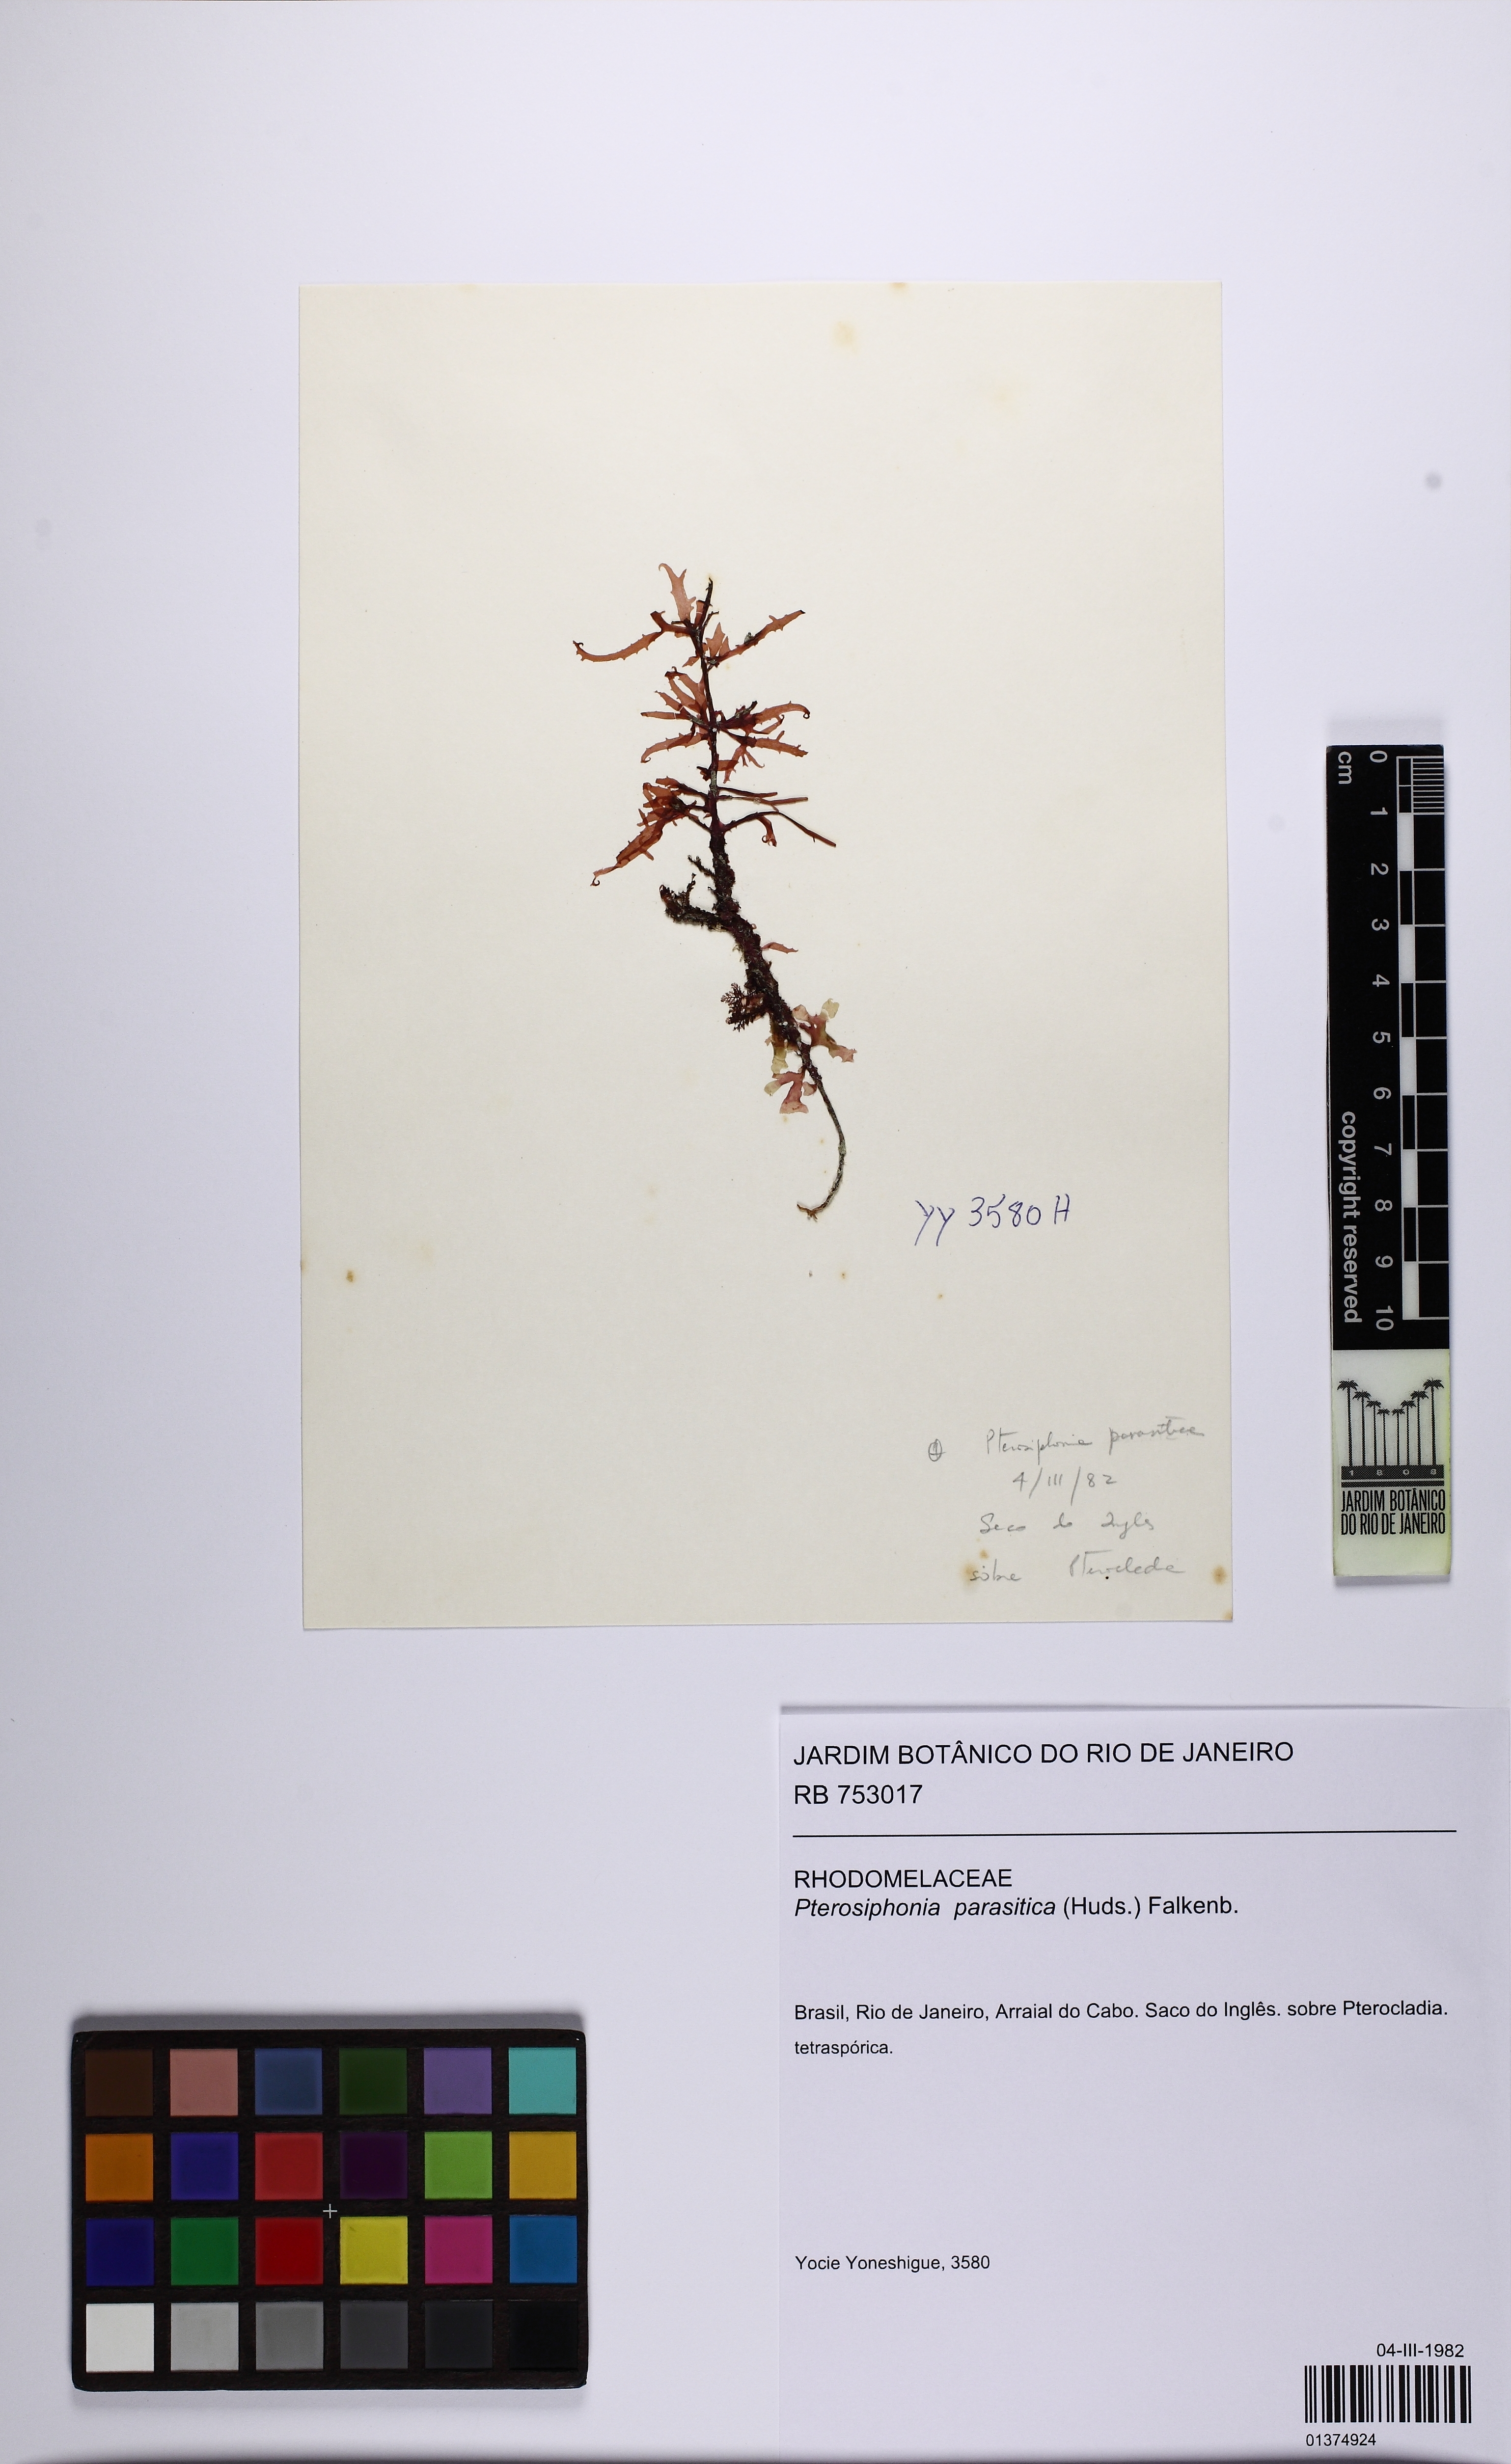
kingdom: Plantae
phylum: Rhodophyta
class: Florideophyceae
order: Ceramiales
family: Rhodomelaceae
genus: Deltalsia
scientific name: Deltalsia parasitica
